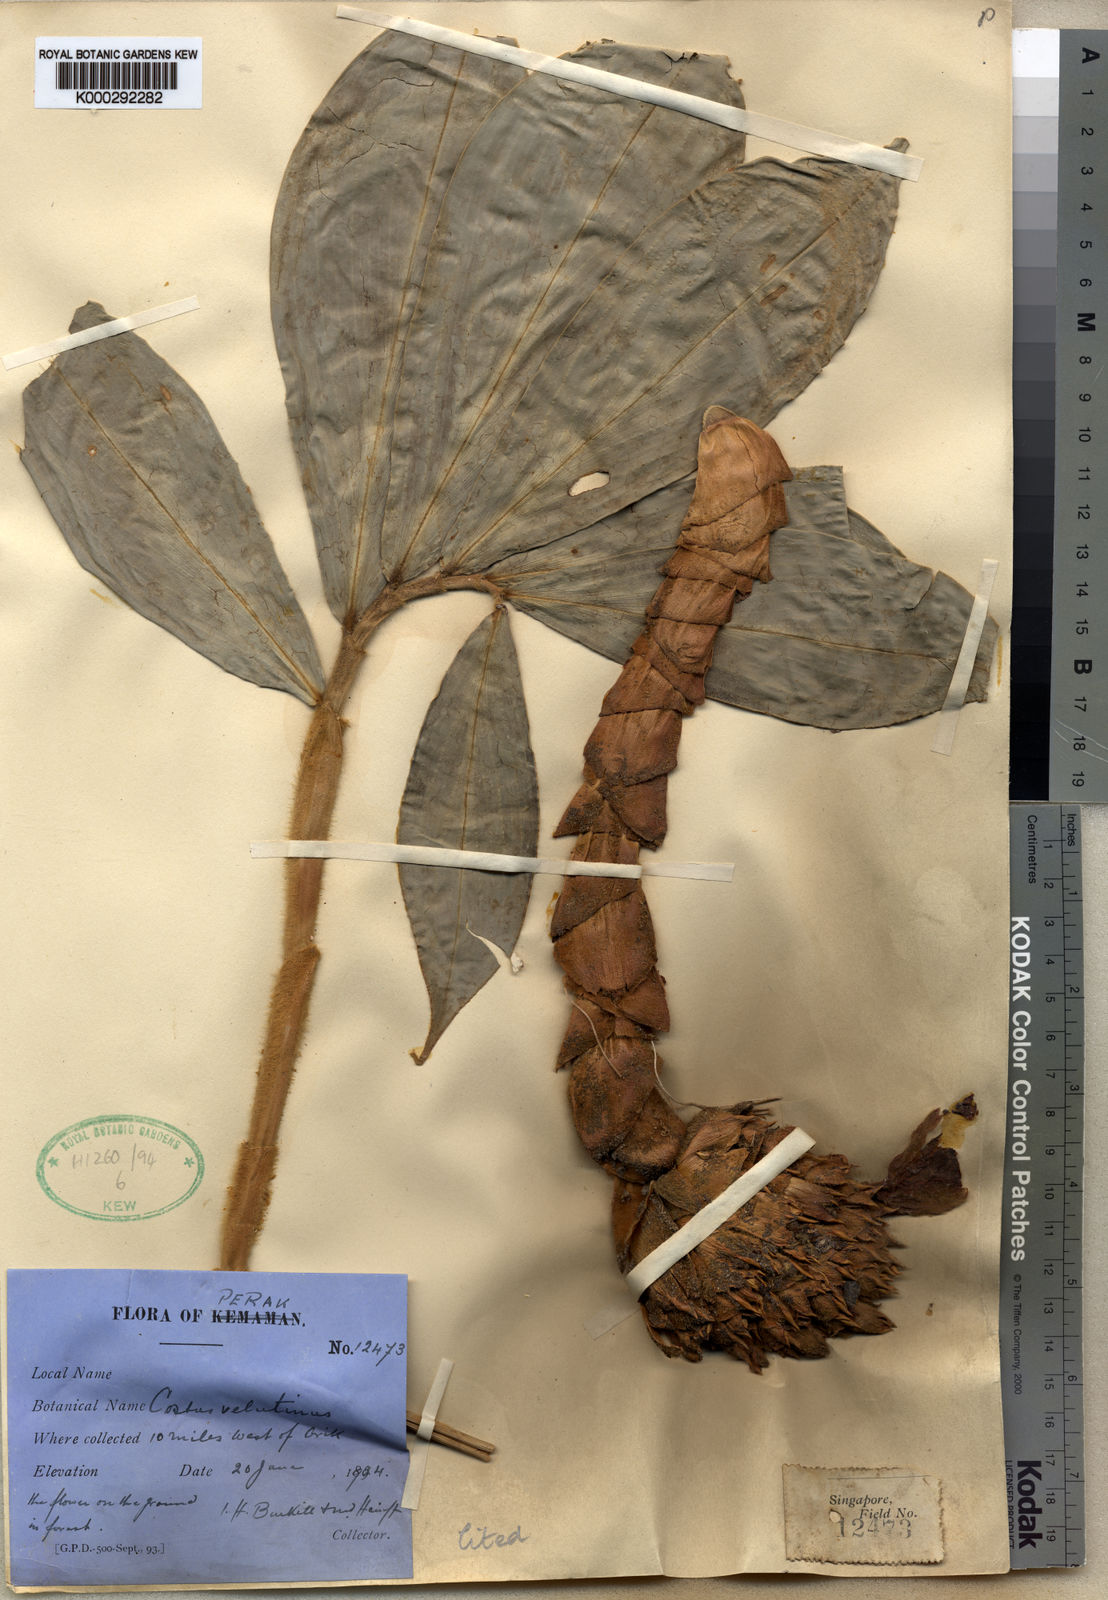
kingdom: Plantae
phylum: Tracheophyta
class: Liliopsida
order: Zingiberales
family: Costaceae
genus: Hellenia
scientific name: Hellenia globosa
